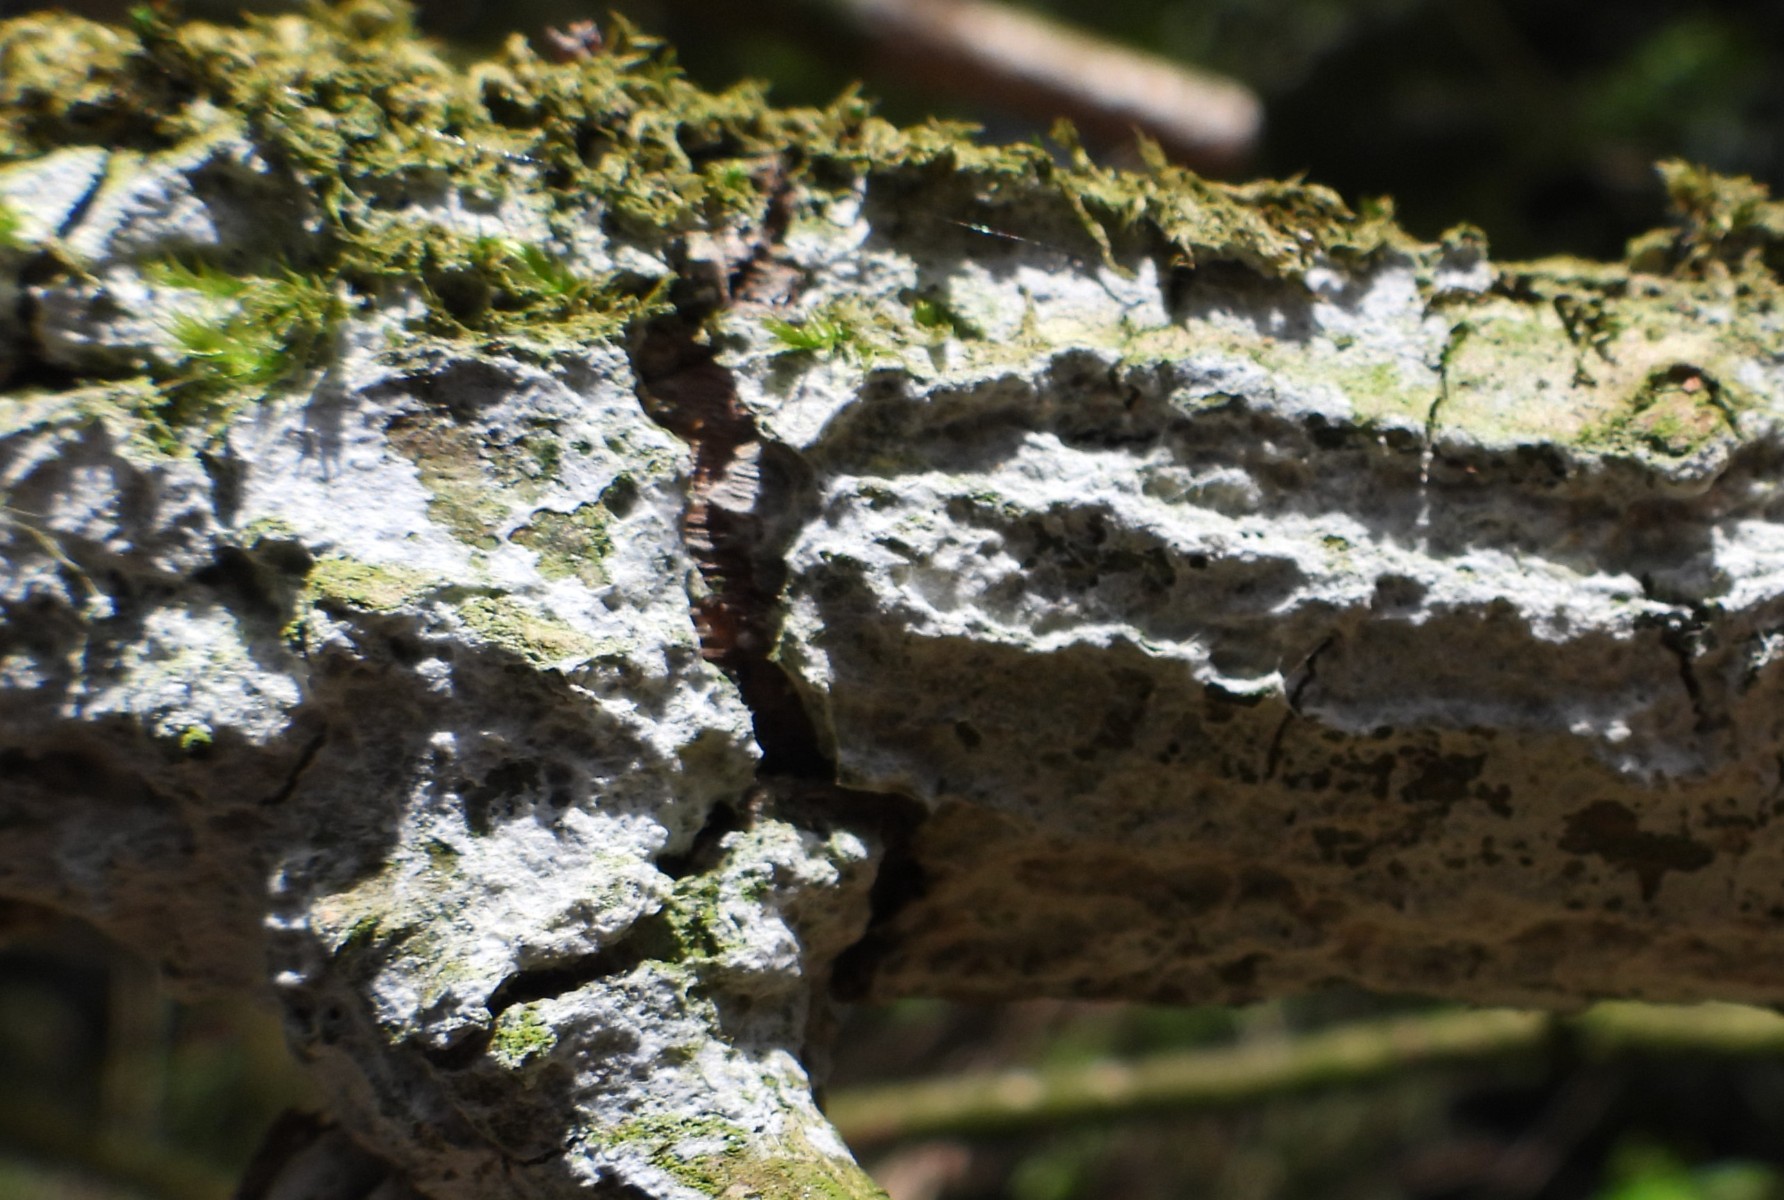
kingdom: Fungi
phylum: Basidiomycota
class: Agaricomycetes
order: Corticiales
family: Corticiaceae
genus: Lyomyces
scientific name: Lyomyces sambuci
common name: almindelig hyldehinde
